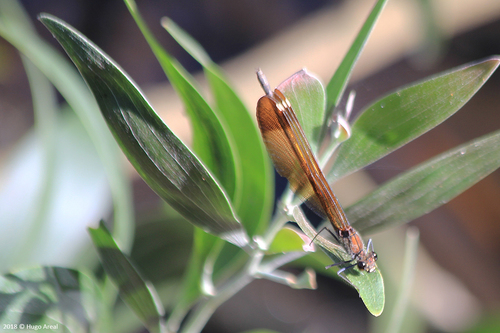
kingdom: Animalia
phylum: Arthropoda
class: Insecta
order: Odonata
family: Calopterygidae
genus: Calopteryx
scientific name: Calopteryx haemorrhoidalis
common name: Copper demoiselle
